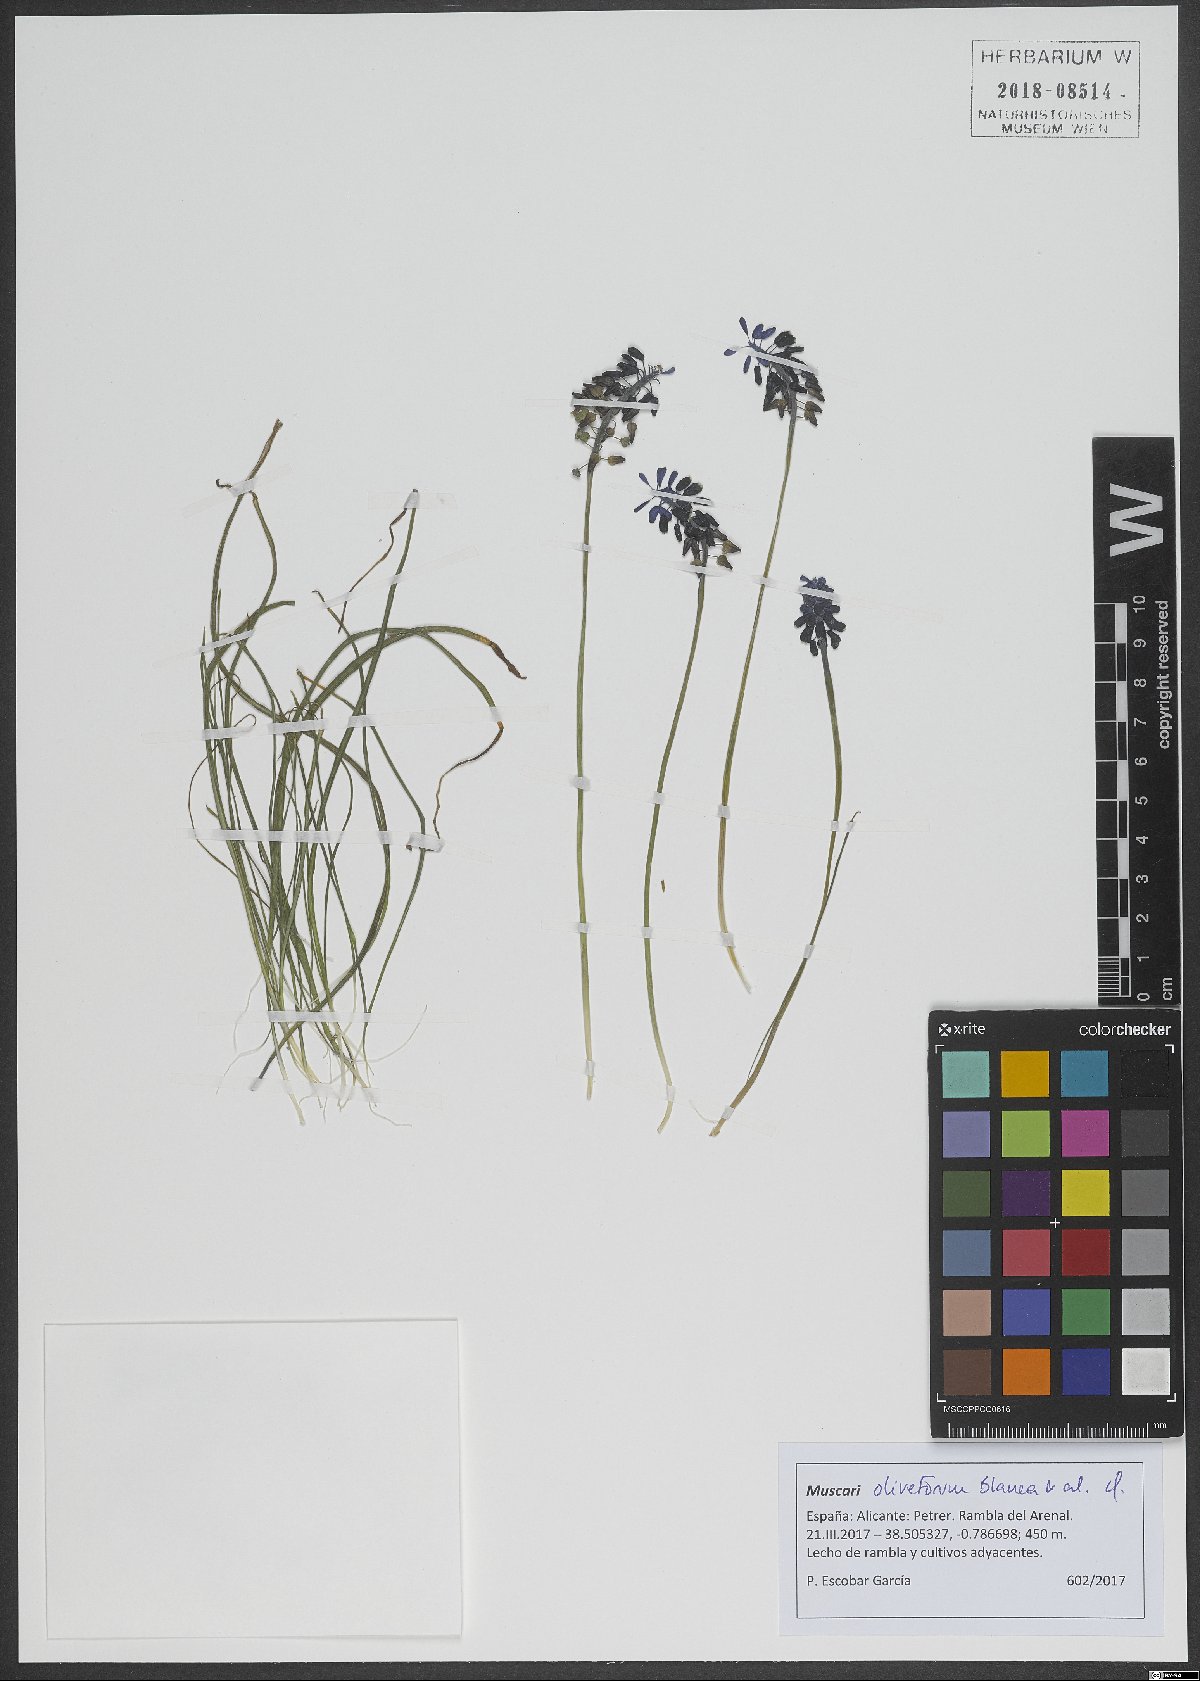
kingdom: Plantae
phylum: Tracheophyta
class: Liliopsida
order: Asparagales
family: Asparagaceae
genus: Muscari
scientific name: Muscari olivetorum
